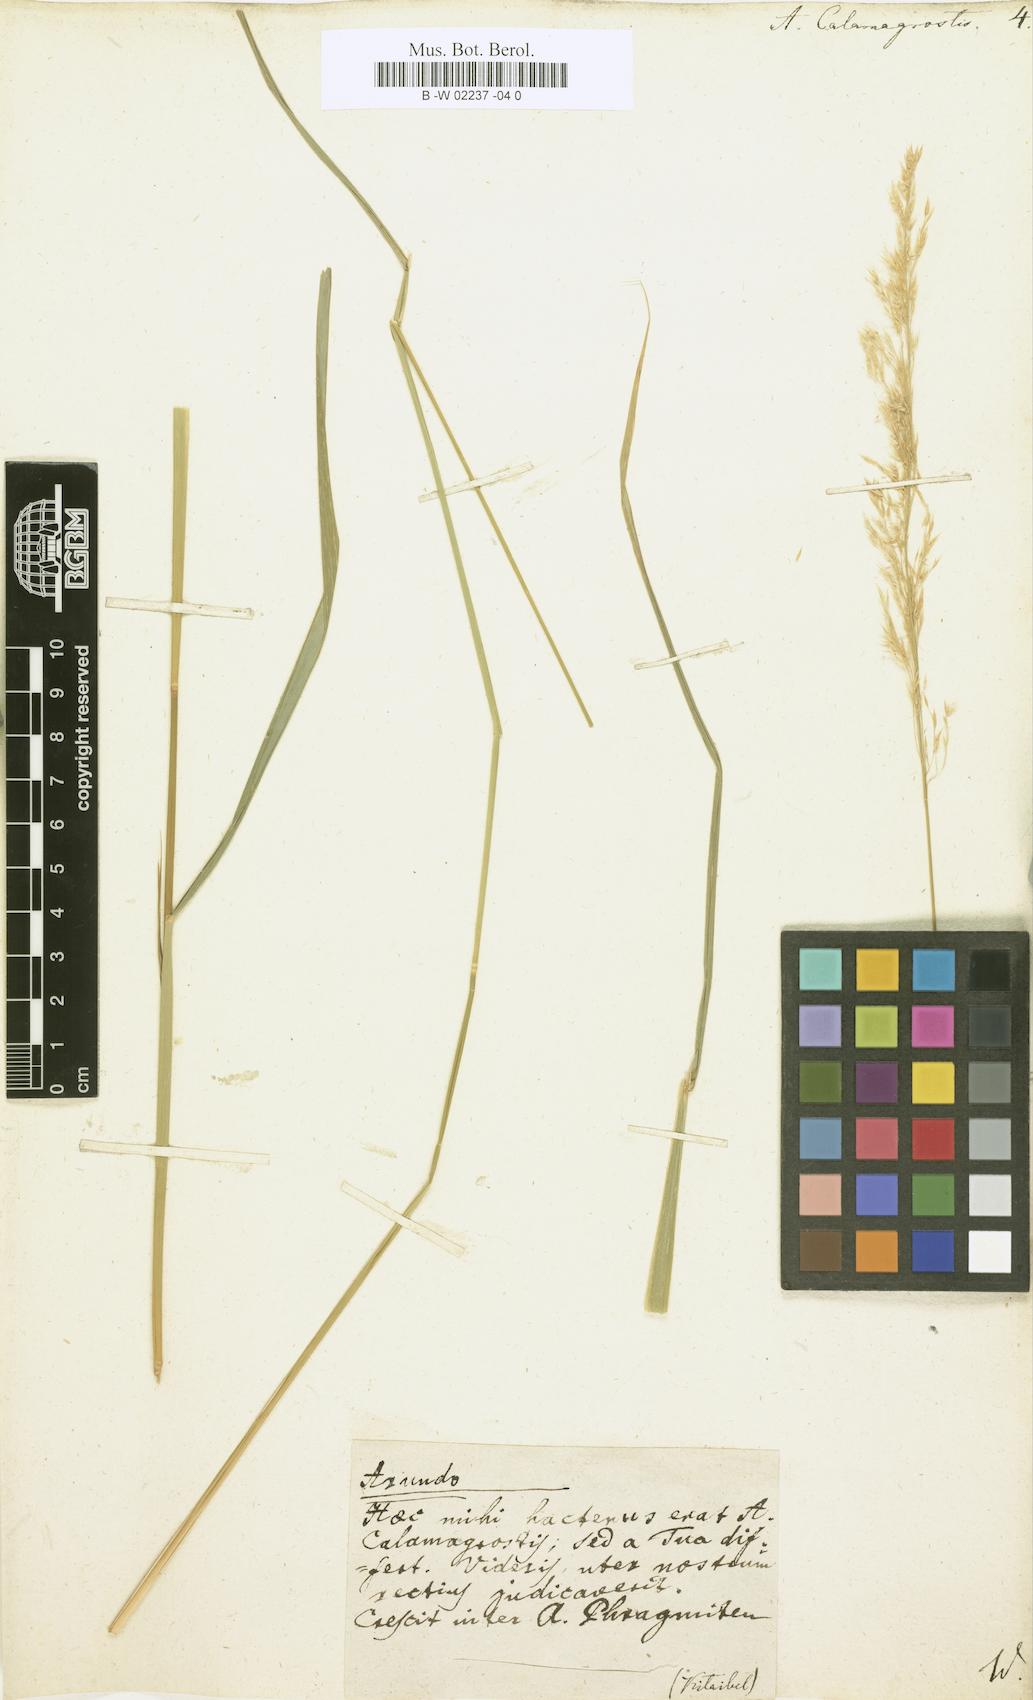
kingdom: Plantae
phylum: Tracheophyta
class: Liliopsida
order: Poales
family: Poaceae
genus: Calamagrostis
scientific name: Calamagrostis canescens
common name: Purple small-reed
